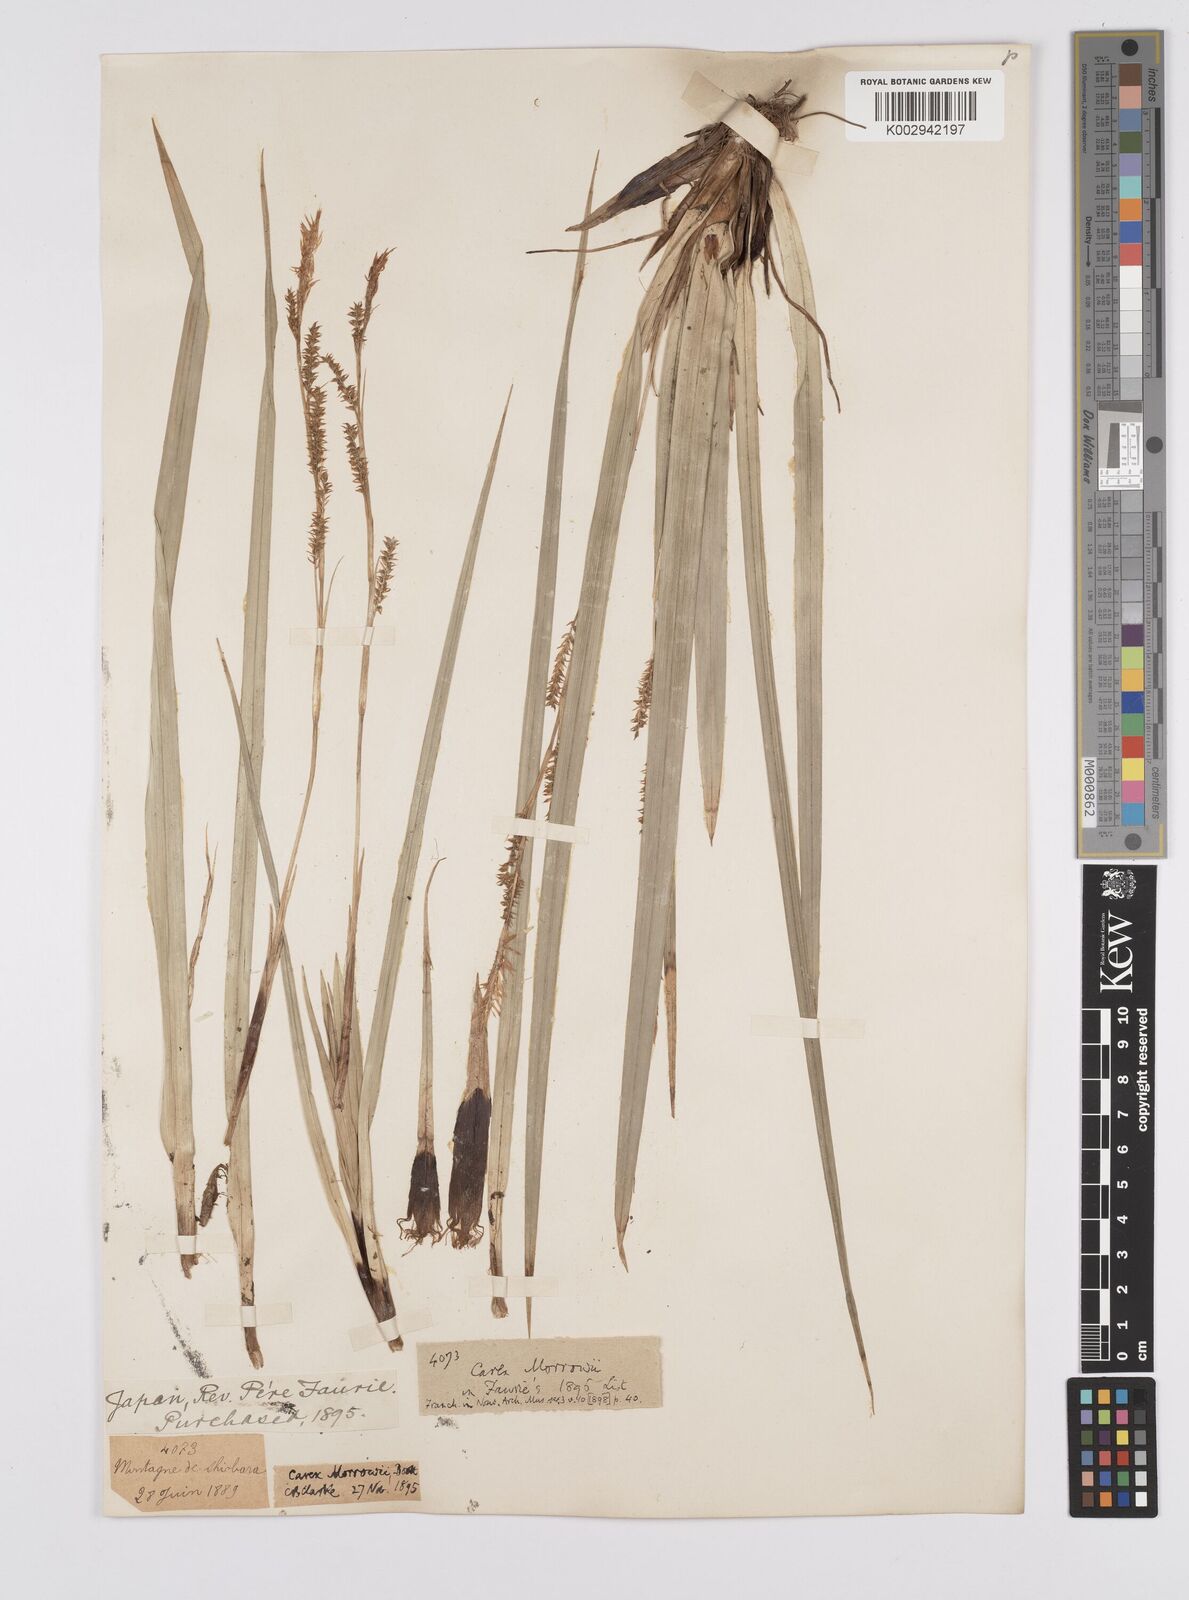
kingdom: Plantae
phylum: Tracheophyta
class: Liliopsida
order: Poales
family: Cyperaceae
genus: Carex
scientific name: Carex morrowii
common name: Japanese sedge
